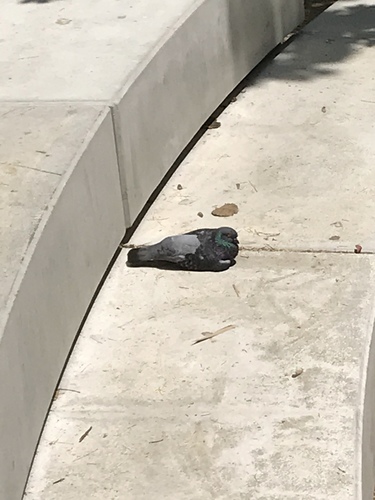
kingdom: Animalia
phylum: Chordata
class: Aves
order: Columbiformes
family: Columbidae
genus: Columba
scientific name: Columba livia
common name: Rock pigeon
